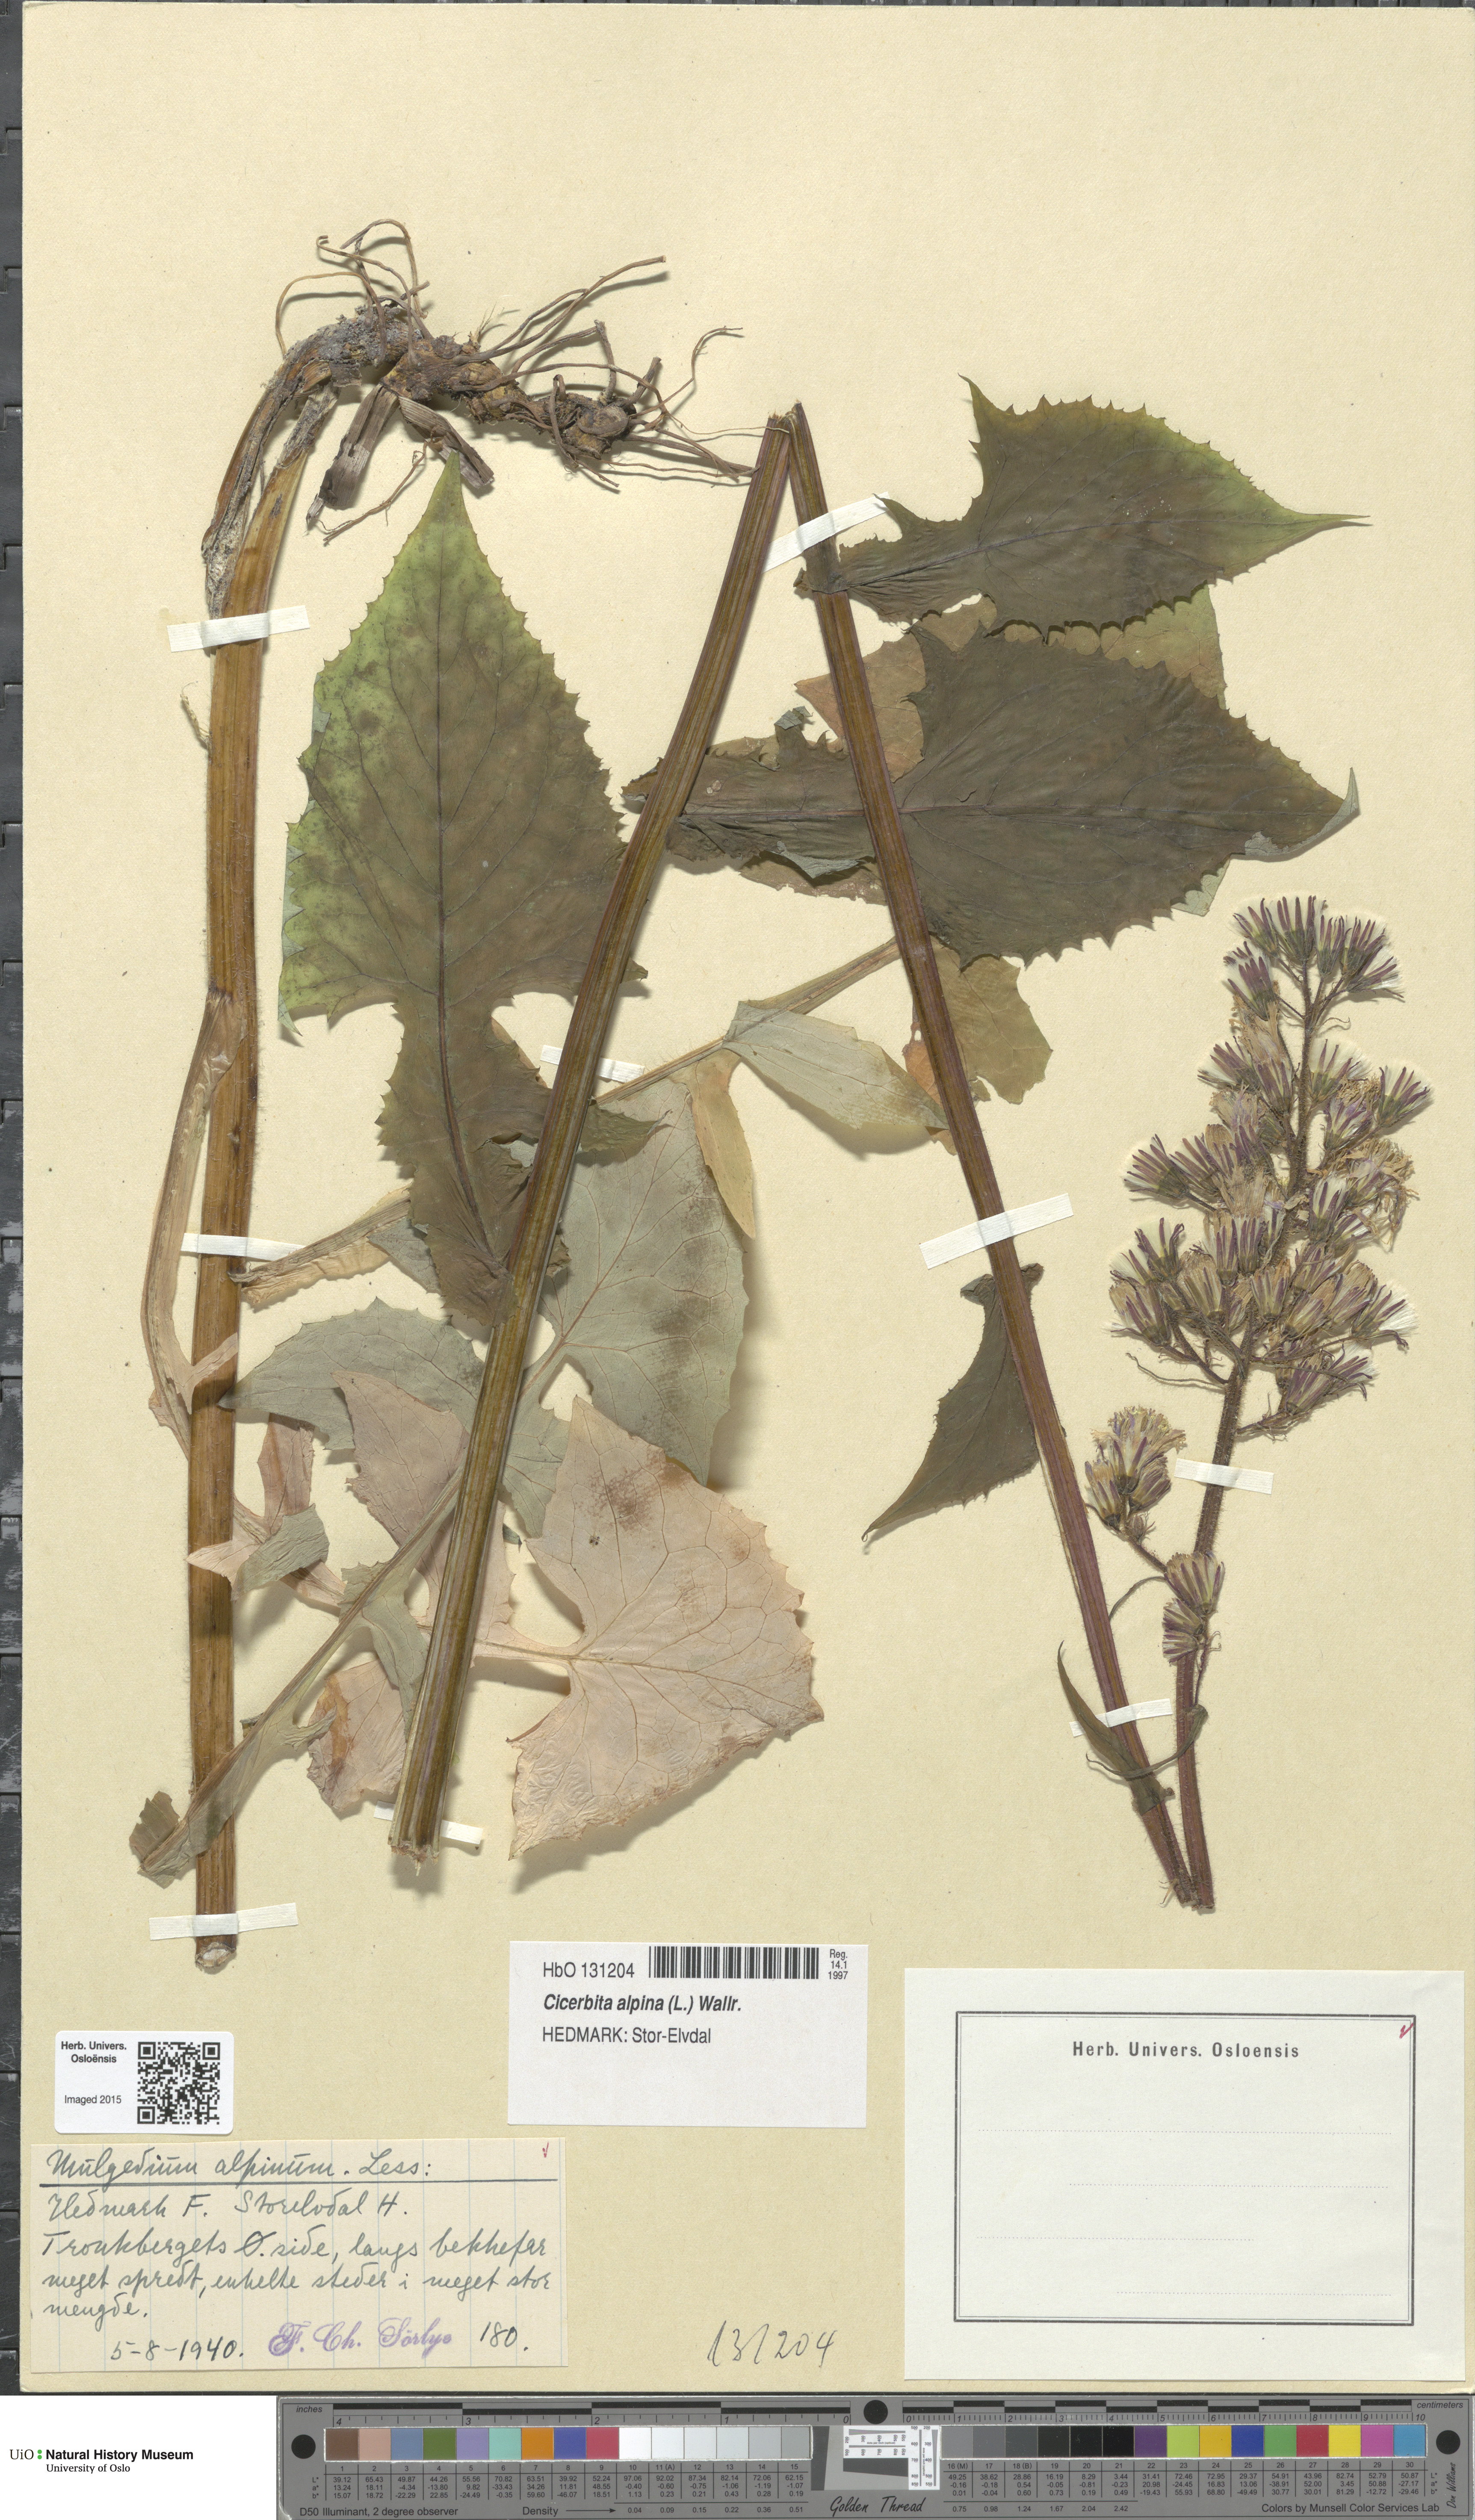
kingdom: Plantae
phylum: Tracheophyta
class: Magnoliopsida
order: Asterales
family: Asteraceae
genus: Cicerbita
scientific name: Cicerbita alpina
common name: Alpine blue-sow-thistle
